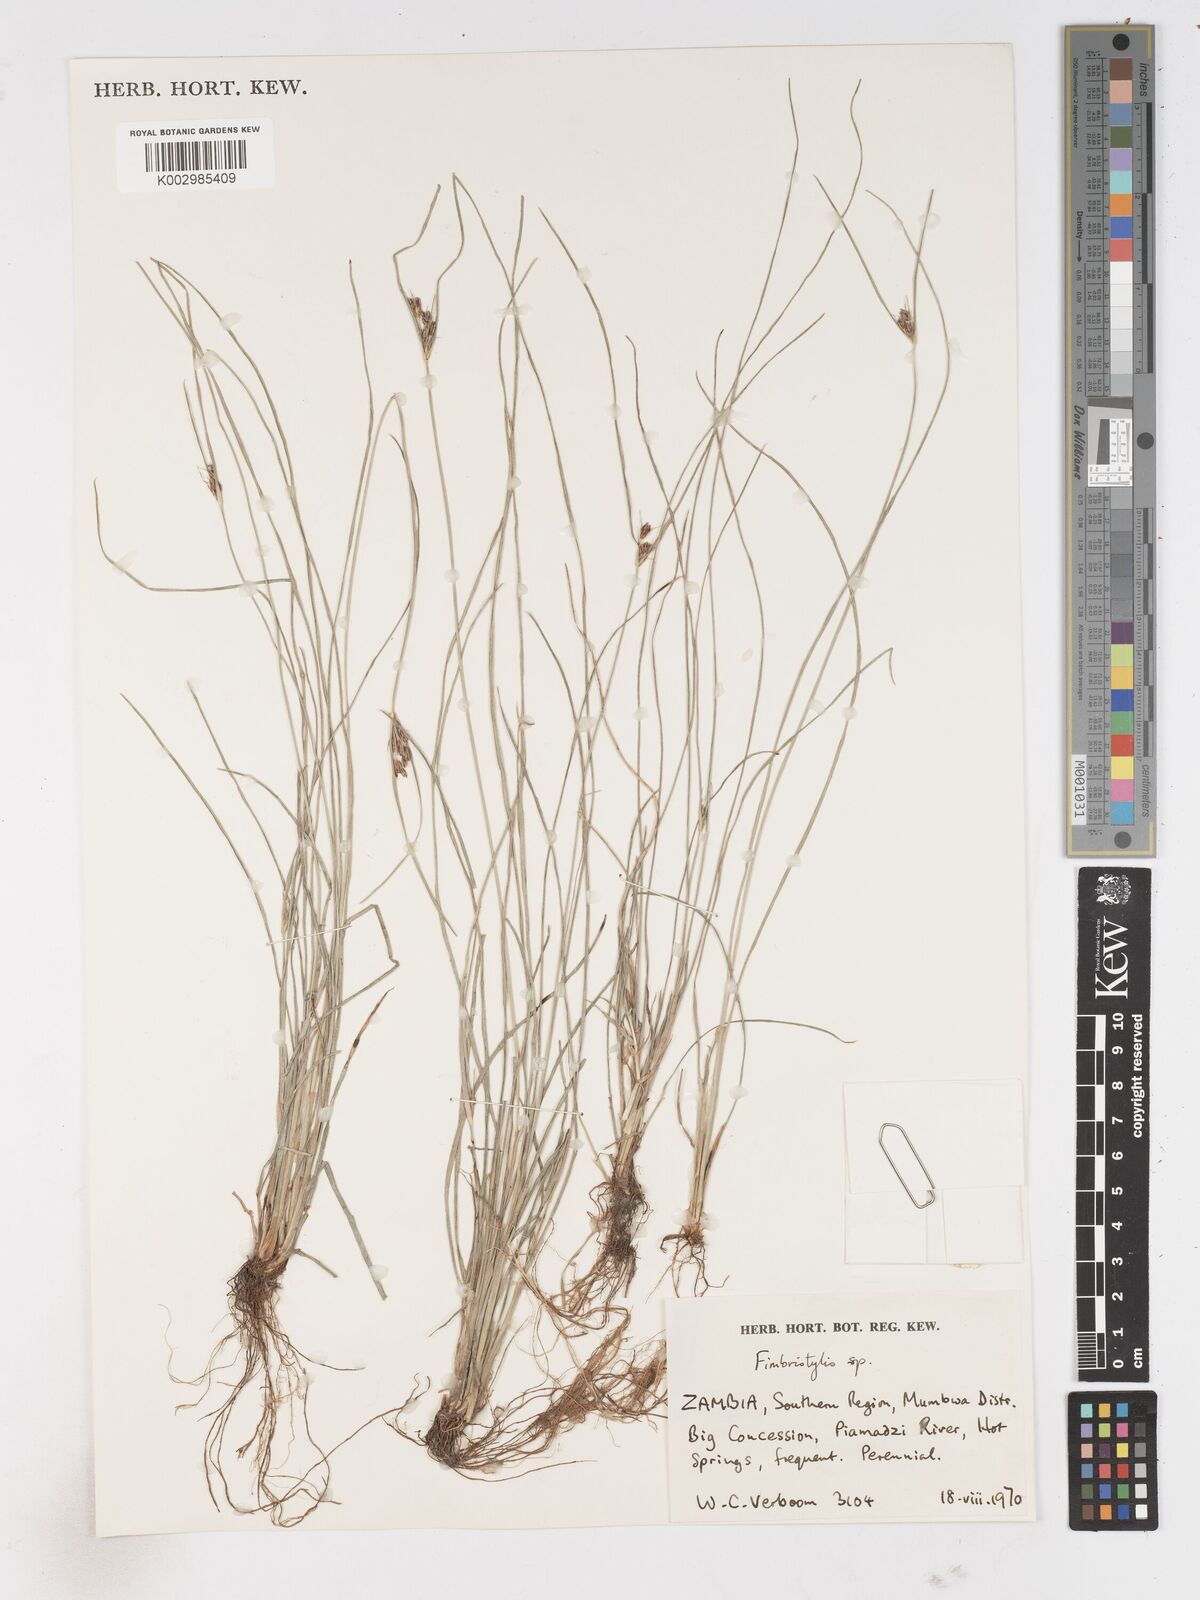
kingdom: Plantae
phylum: Tracheophyta
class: Liliopsida
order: Poales
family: Cyperaceae
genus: Fimbristylis
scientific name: Fimbristylis
